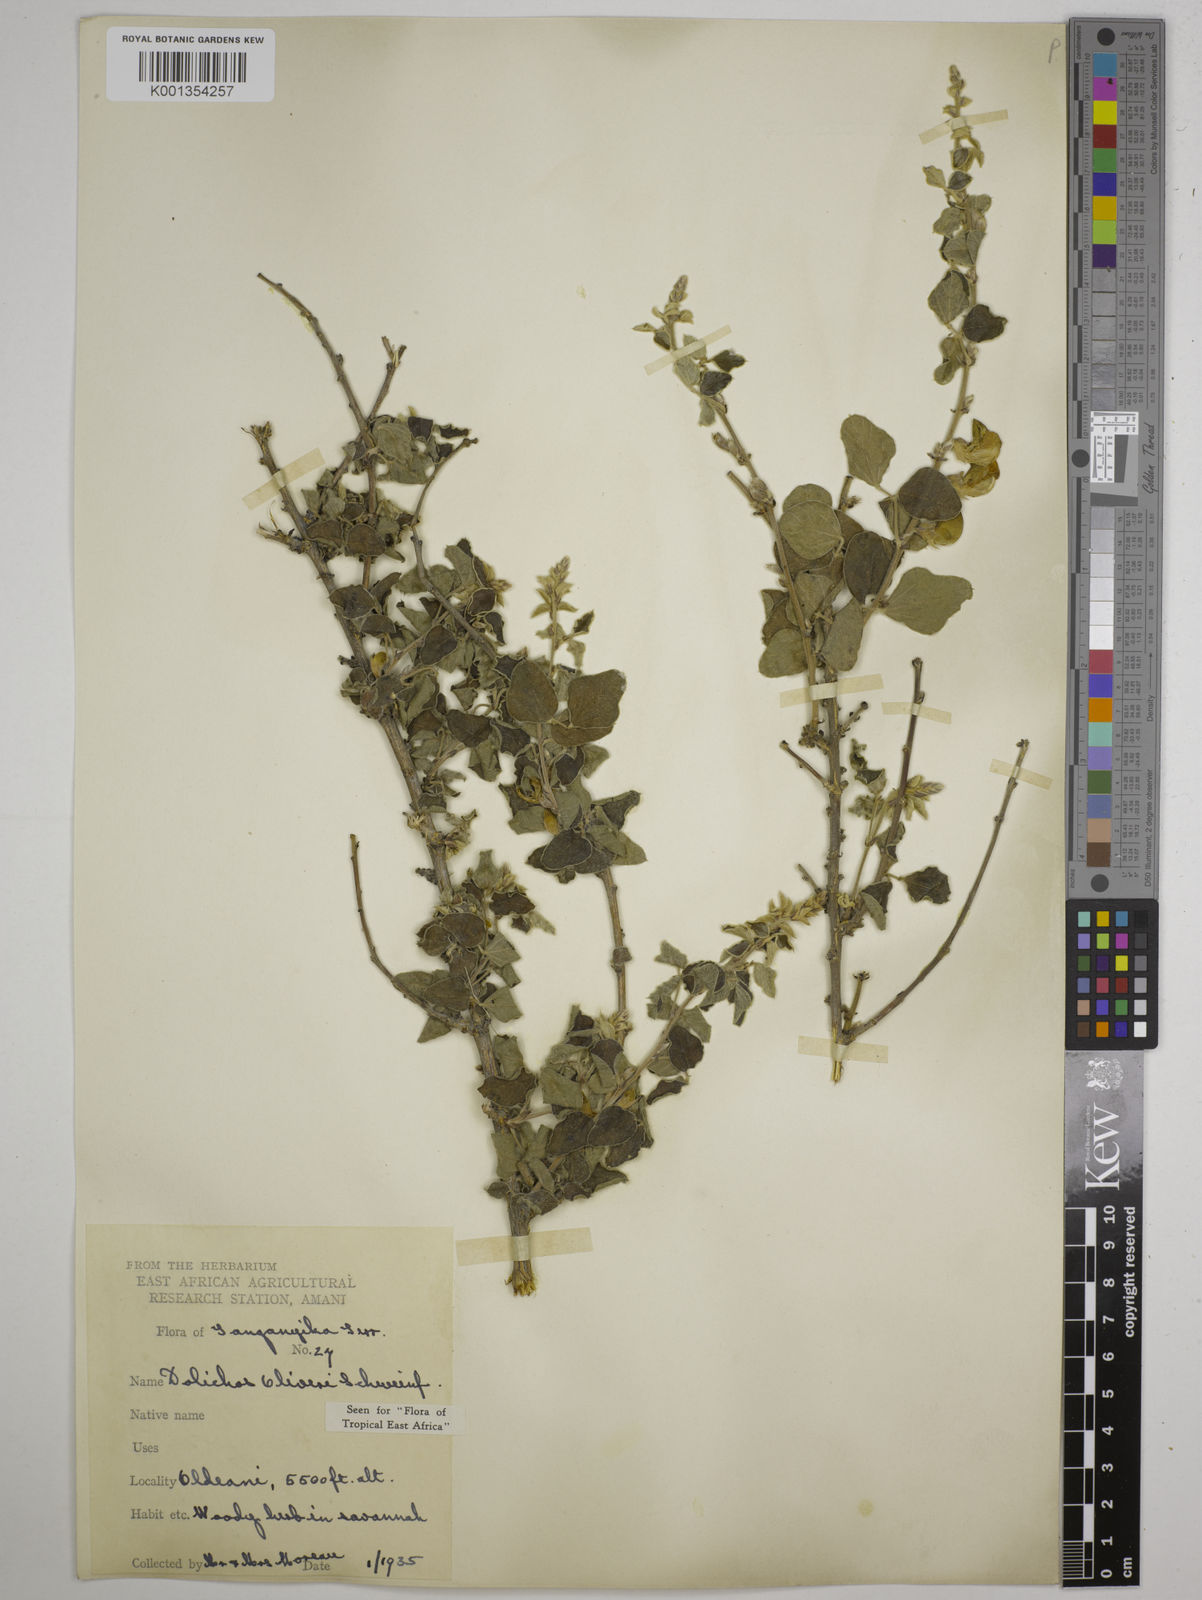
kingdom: Plantae
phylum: Tracheophyta
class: Magnoliopsida
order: Fabales
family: Fabaceae
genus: Dolichos
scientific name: Dolichos
